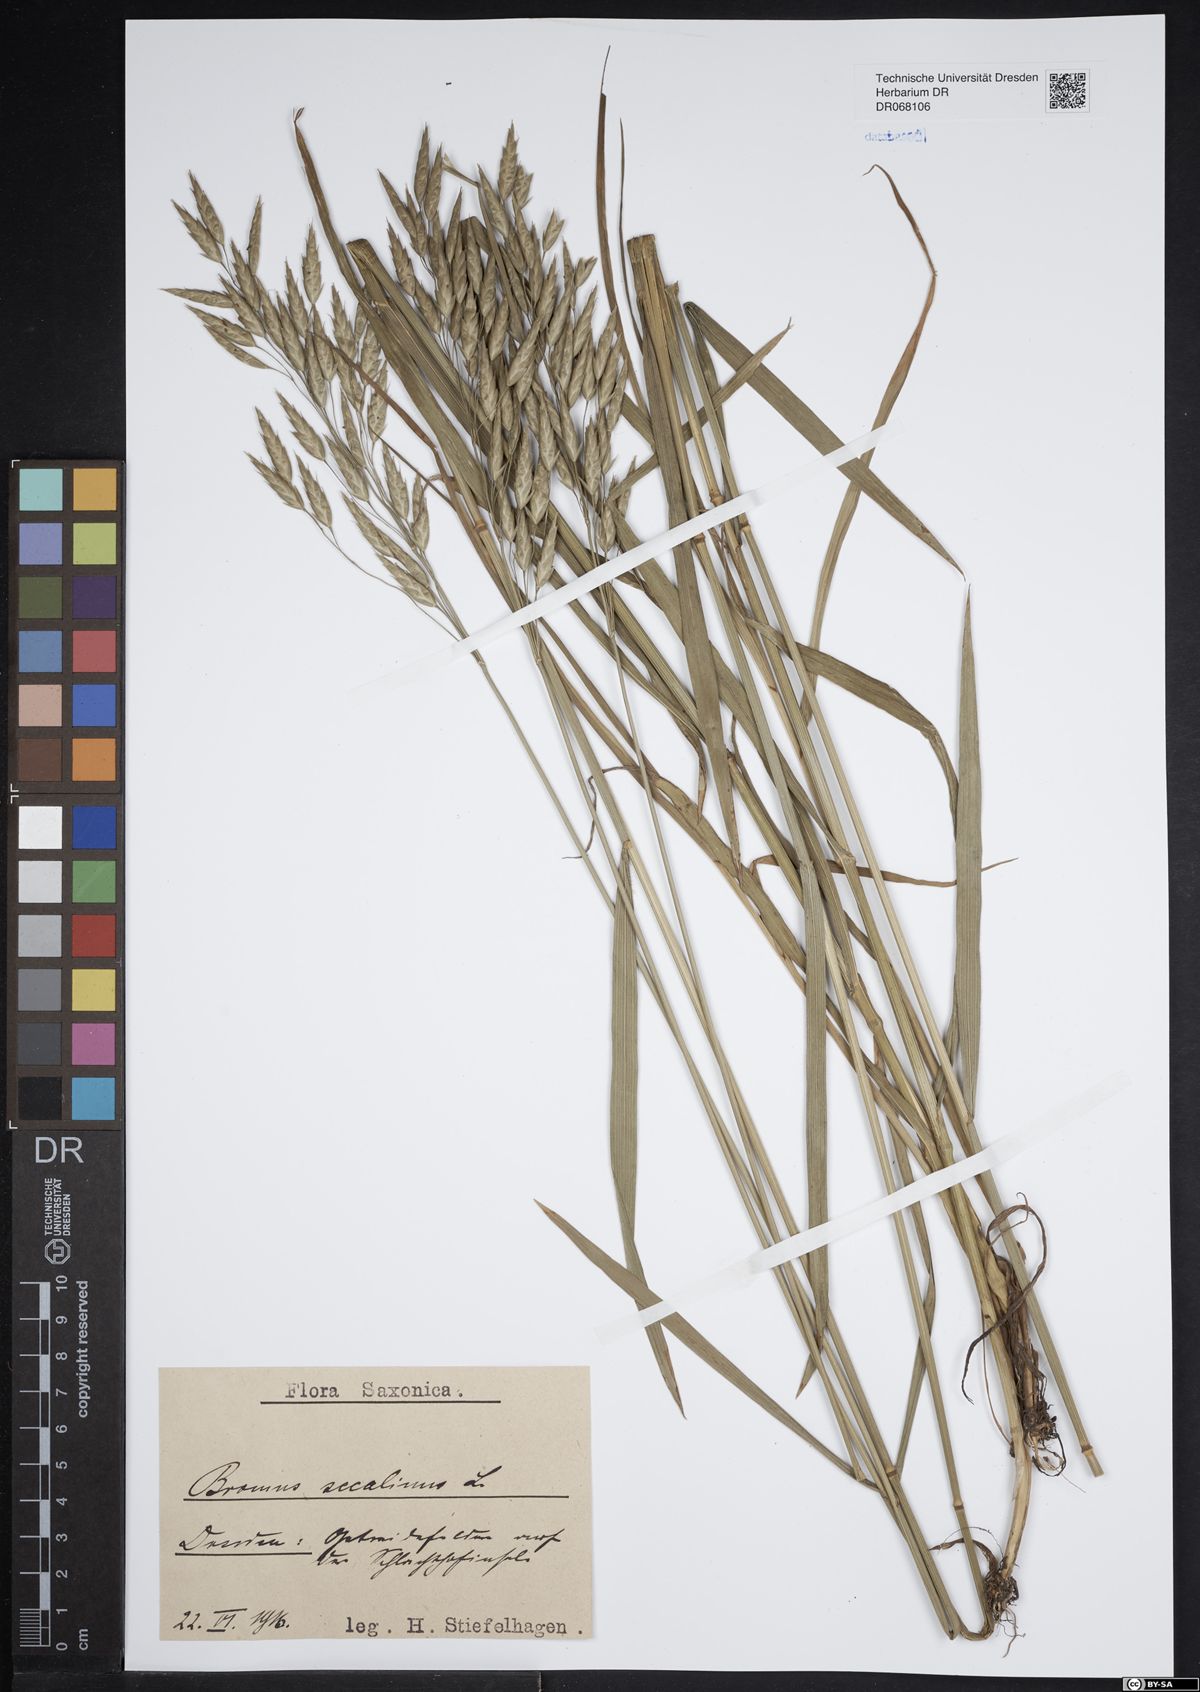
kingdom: Plantae
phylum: Tracheophyta
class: Liliopsida
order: Poales
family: Poaceae
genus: Bromus
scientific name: Bromus secalinus
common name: Rye brome
